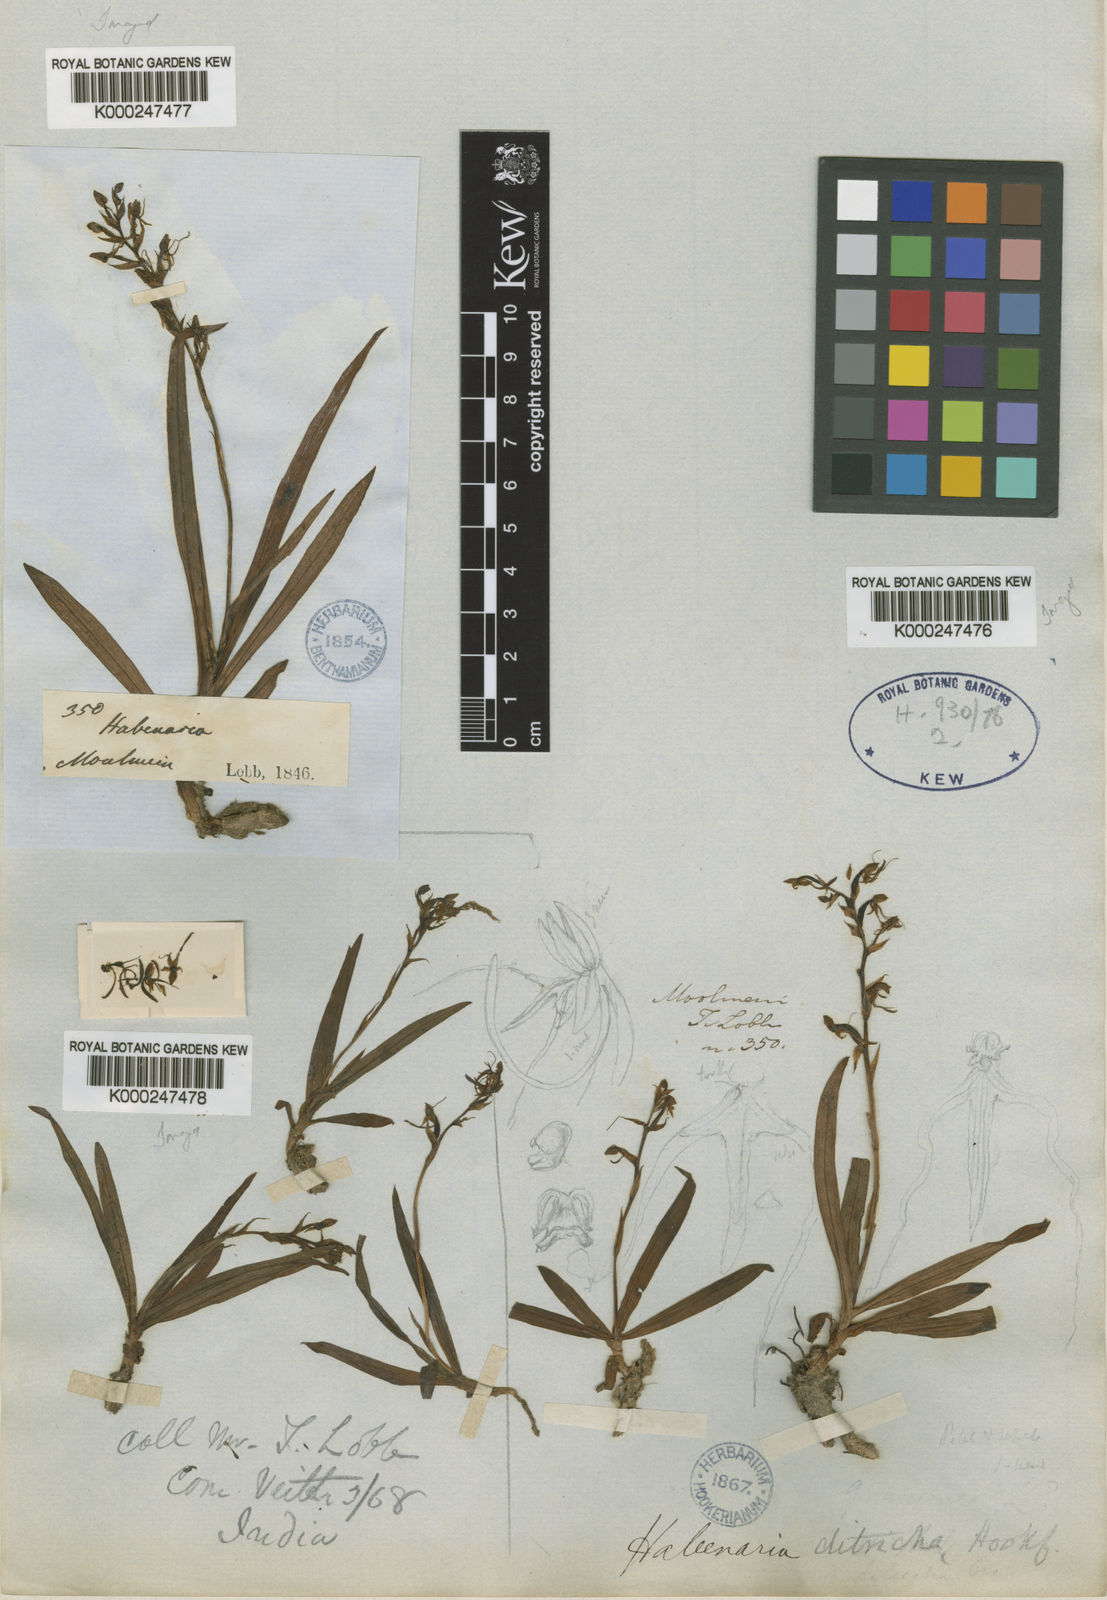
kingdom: Plantae
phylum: Tracheophyta
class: Liliopsida
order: Asparagales
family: Orchidaceae
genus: Habenaria
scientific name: Habenaria ditricha
